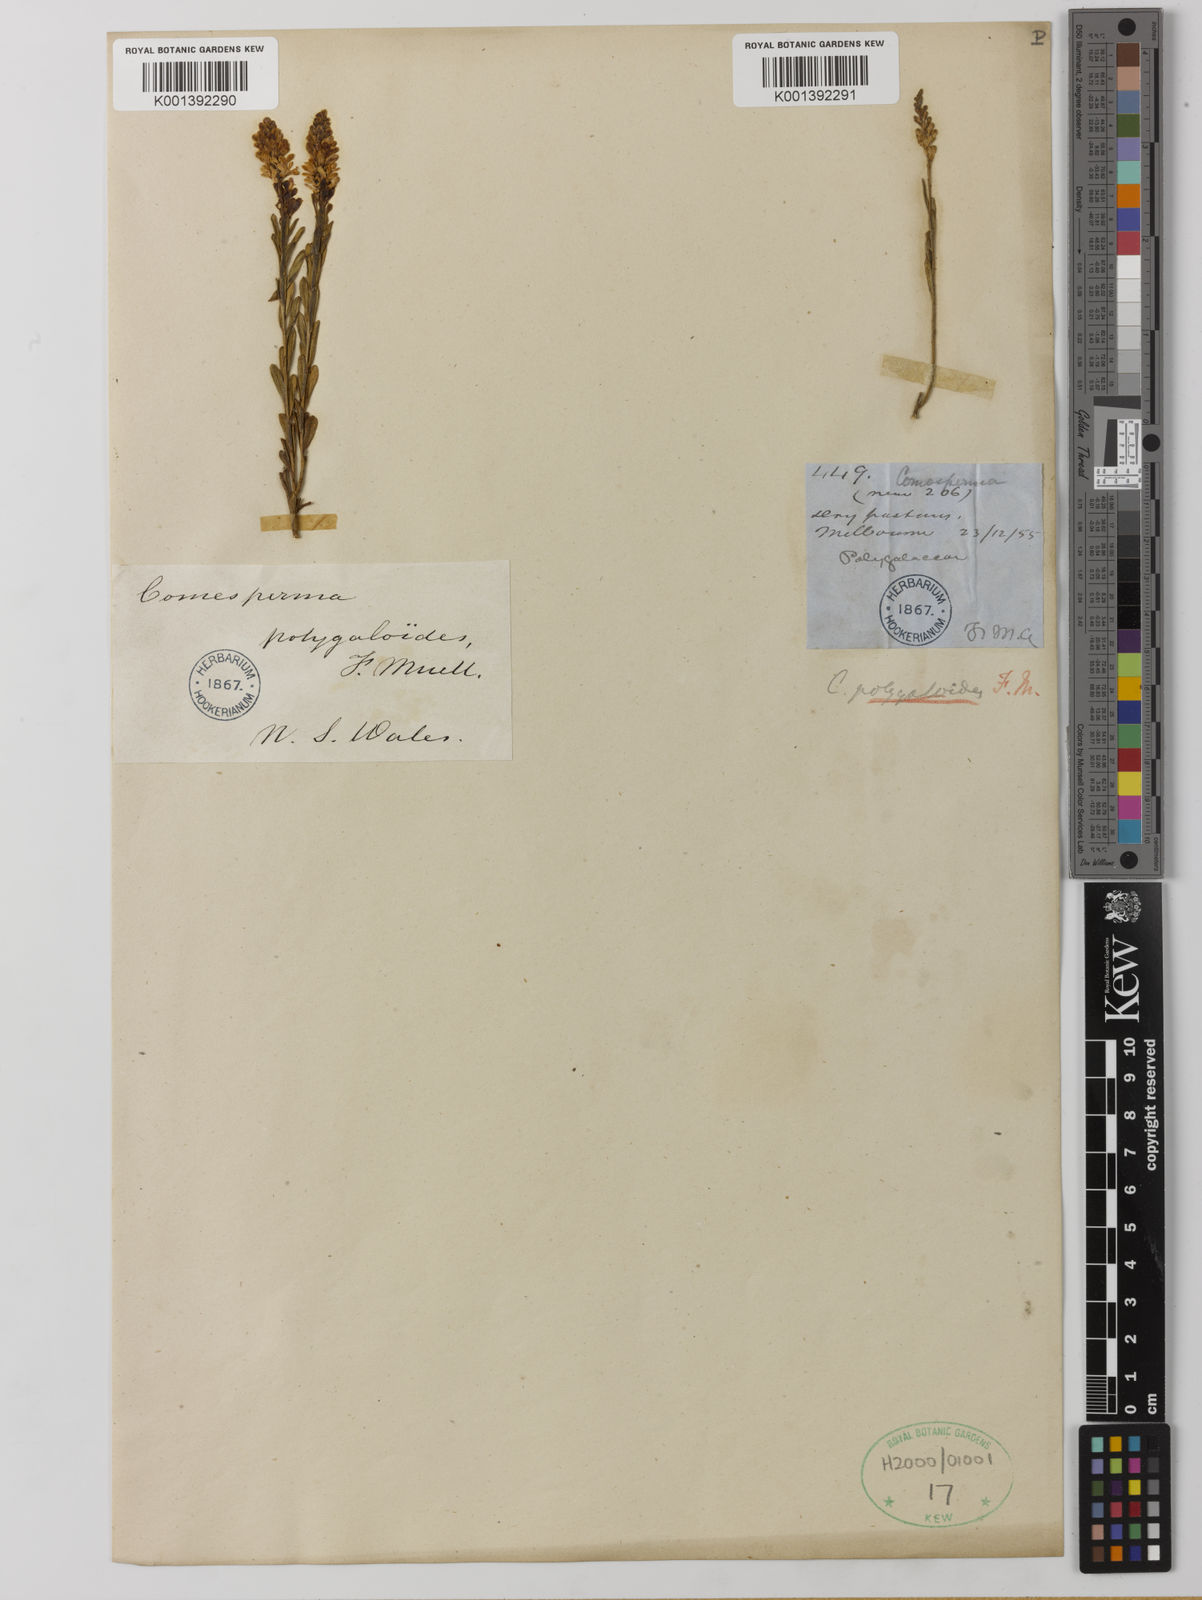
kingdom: Plantae
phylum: Tracheophyta
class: Magnoliopsida
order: Fabales
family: Polygalaceae
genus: Comesperma
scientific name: Comesperma polygaloides
